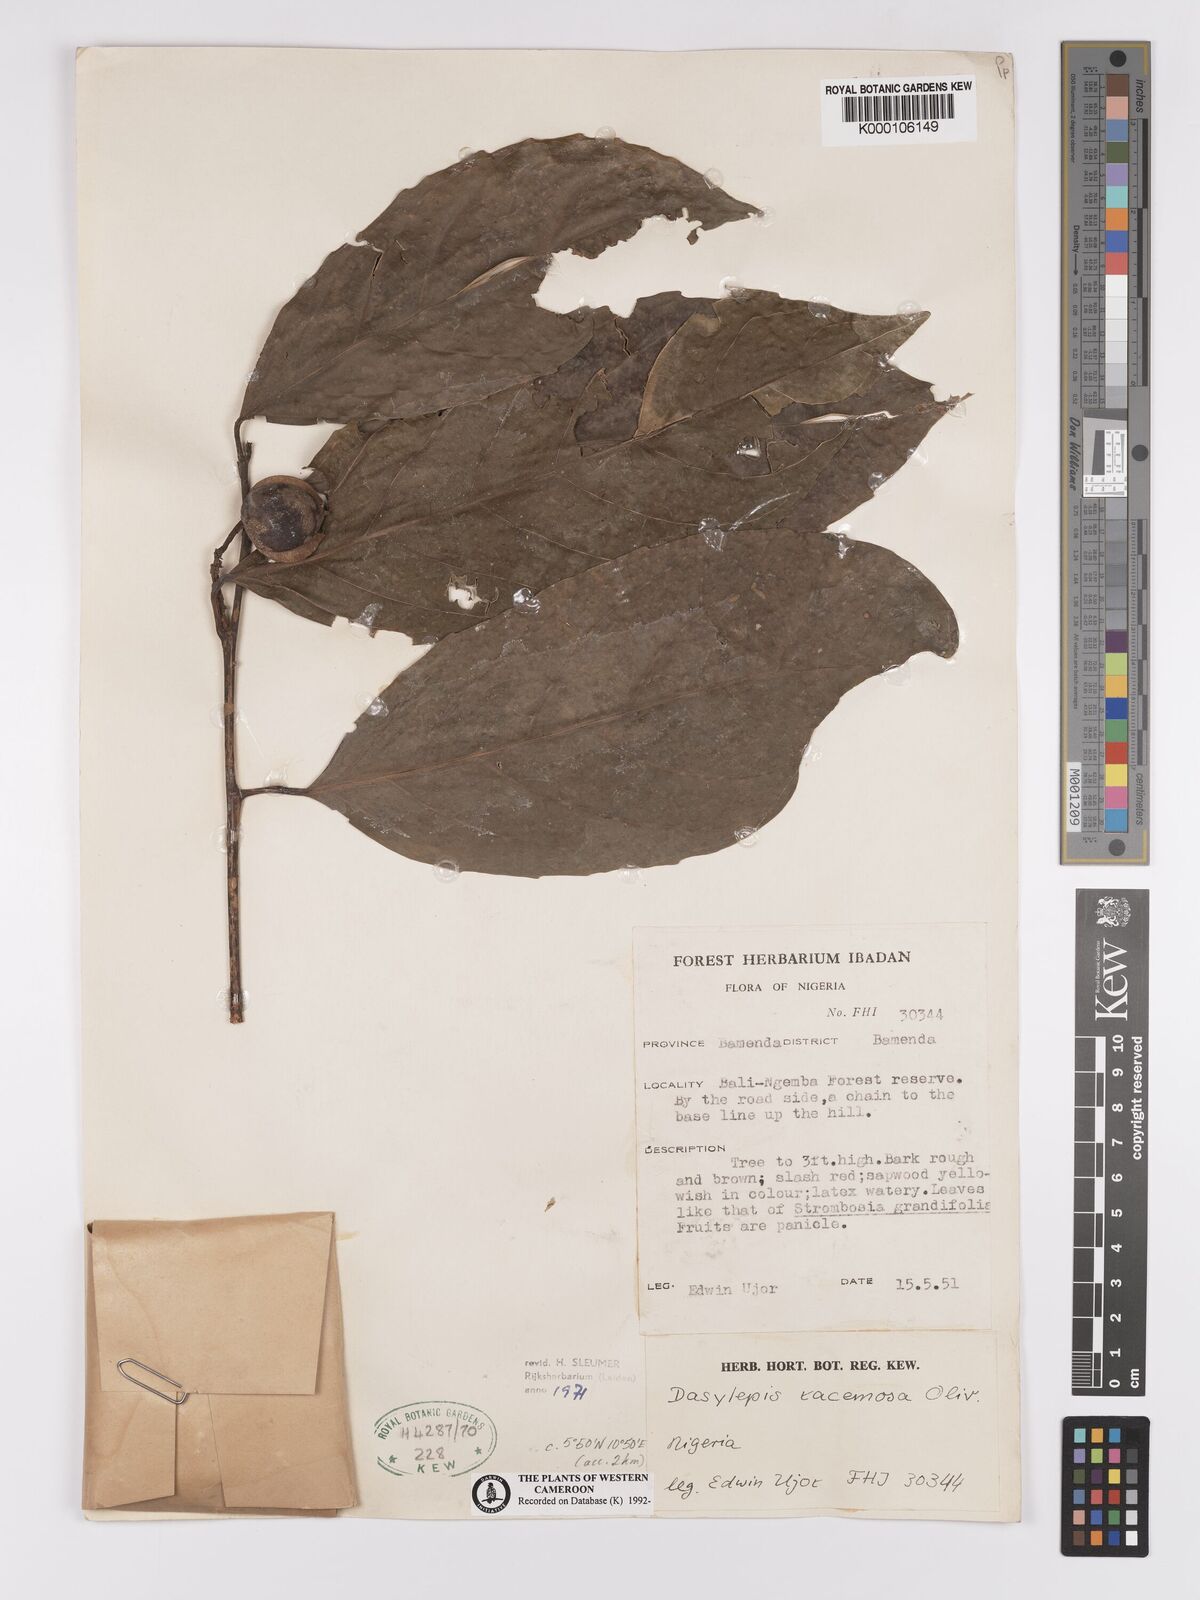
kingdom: Plantae
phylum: Tracheophyta
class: Magnoliopsida
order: Malpighiales
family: Achariaceae
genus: Dasylepis
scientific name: Dasylepis racemosa
